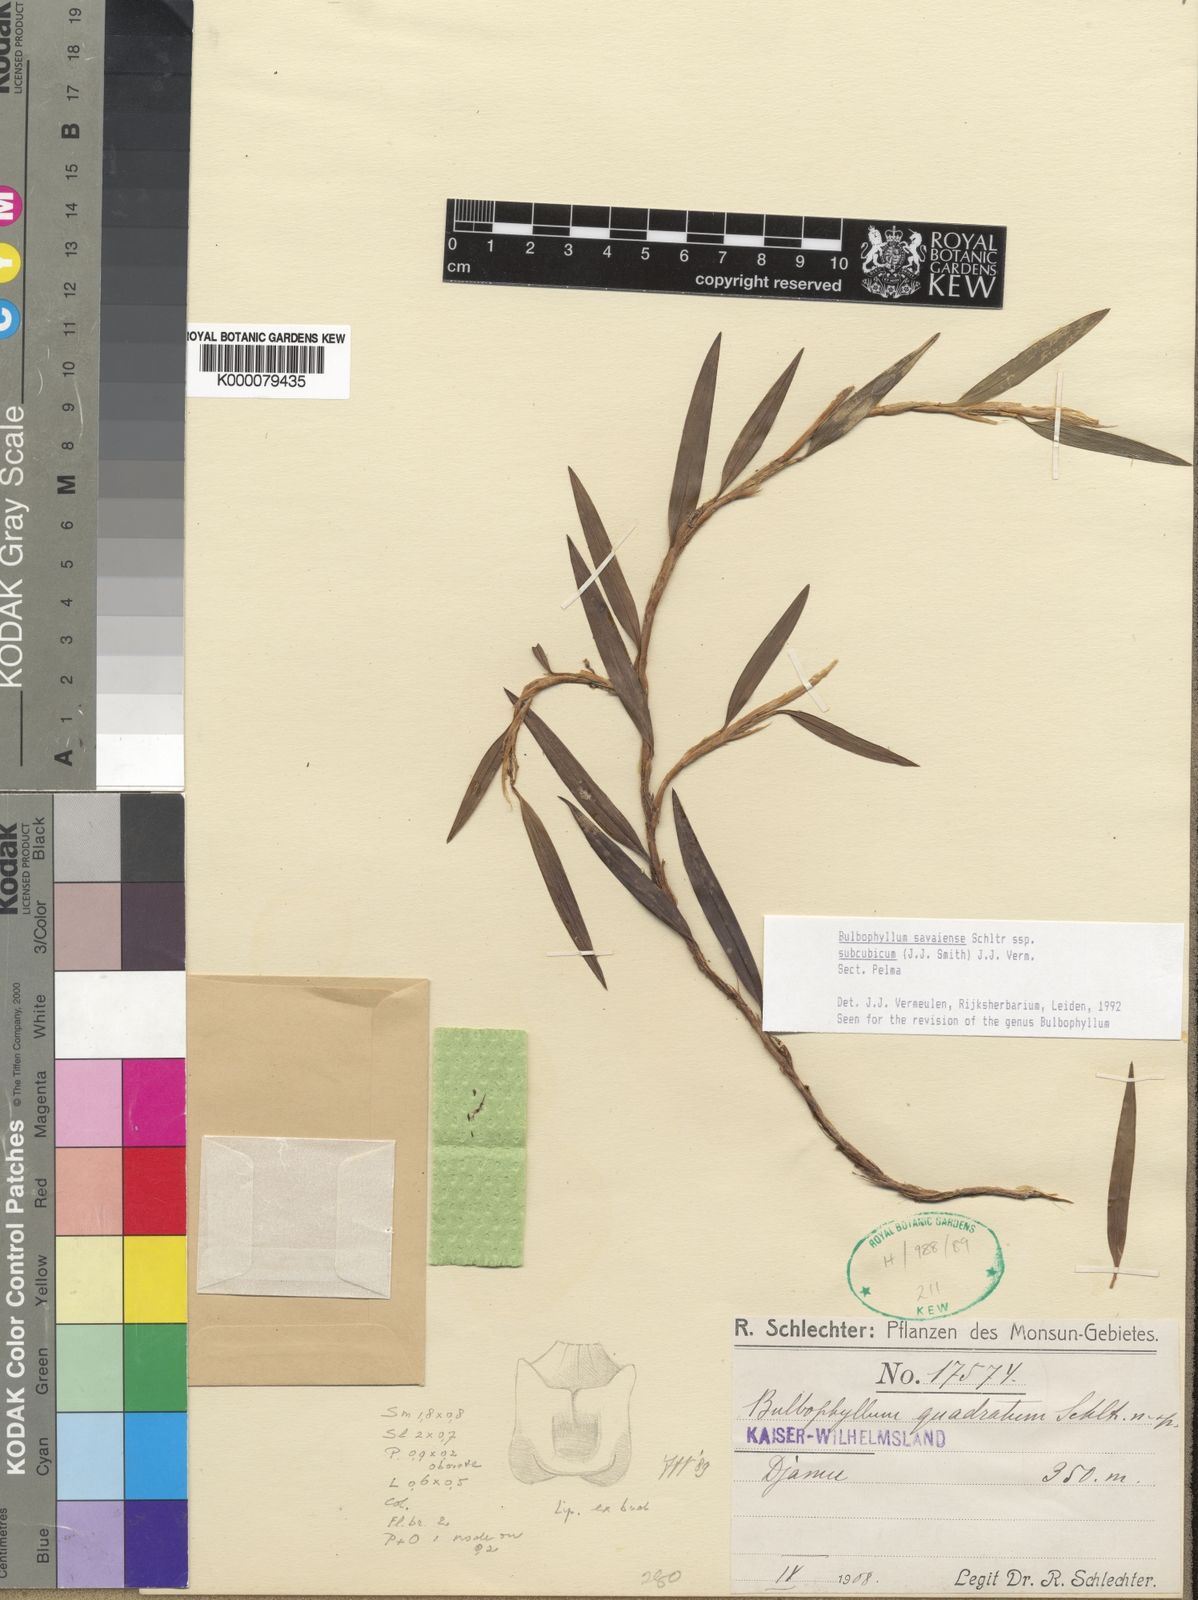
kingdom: Plantae
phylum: Tracheophyta
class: Liliopsida
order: Asparagales
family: Orchidaceae
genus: Bulbophyllum
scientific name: Bulbophyllum savaiense
